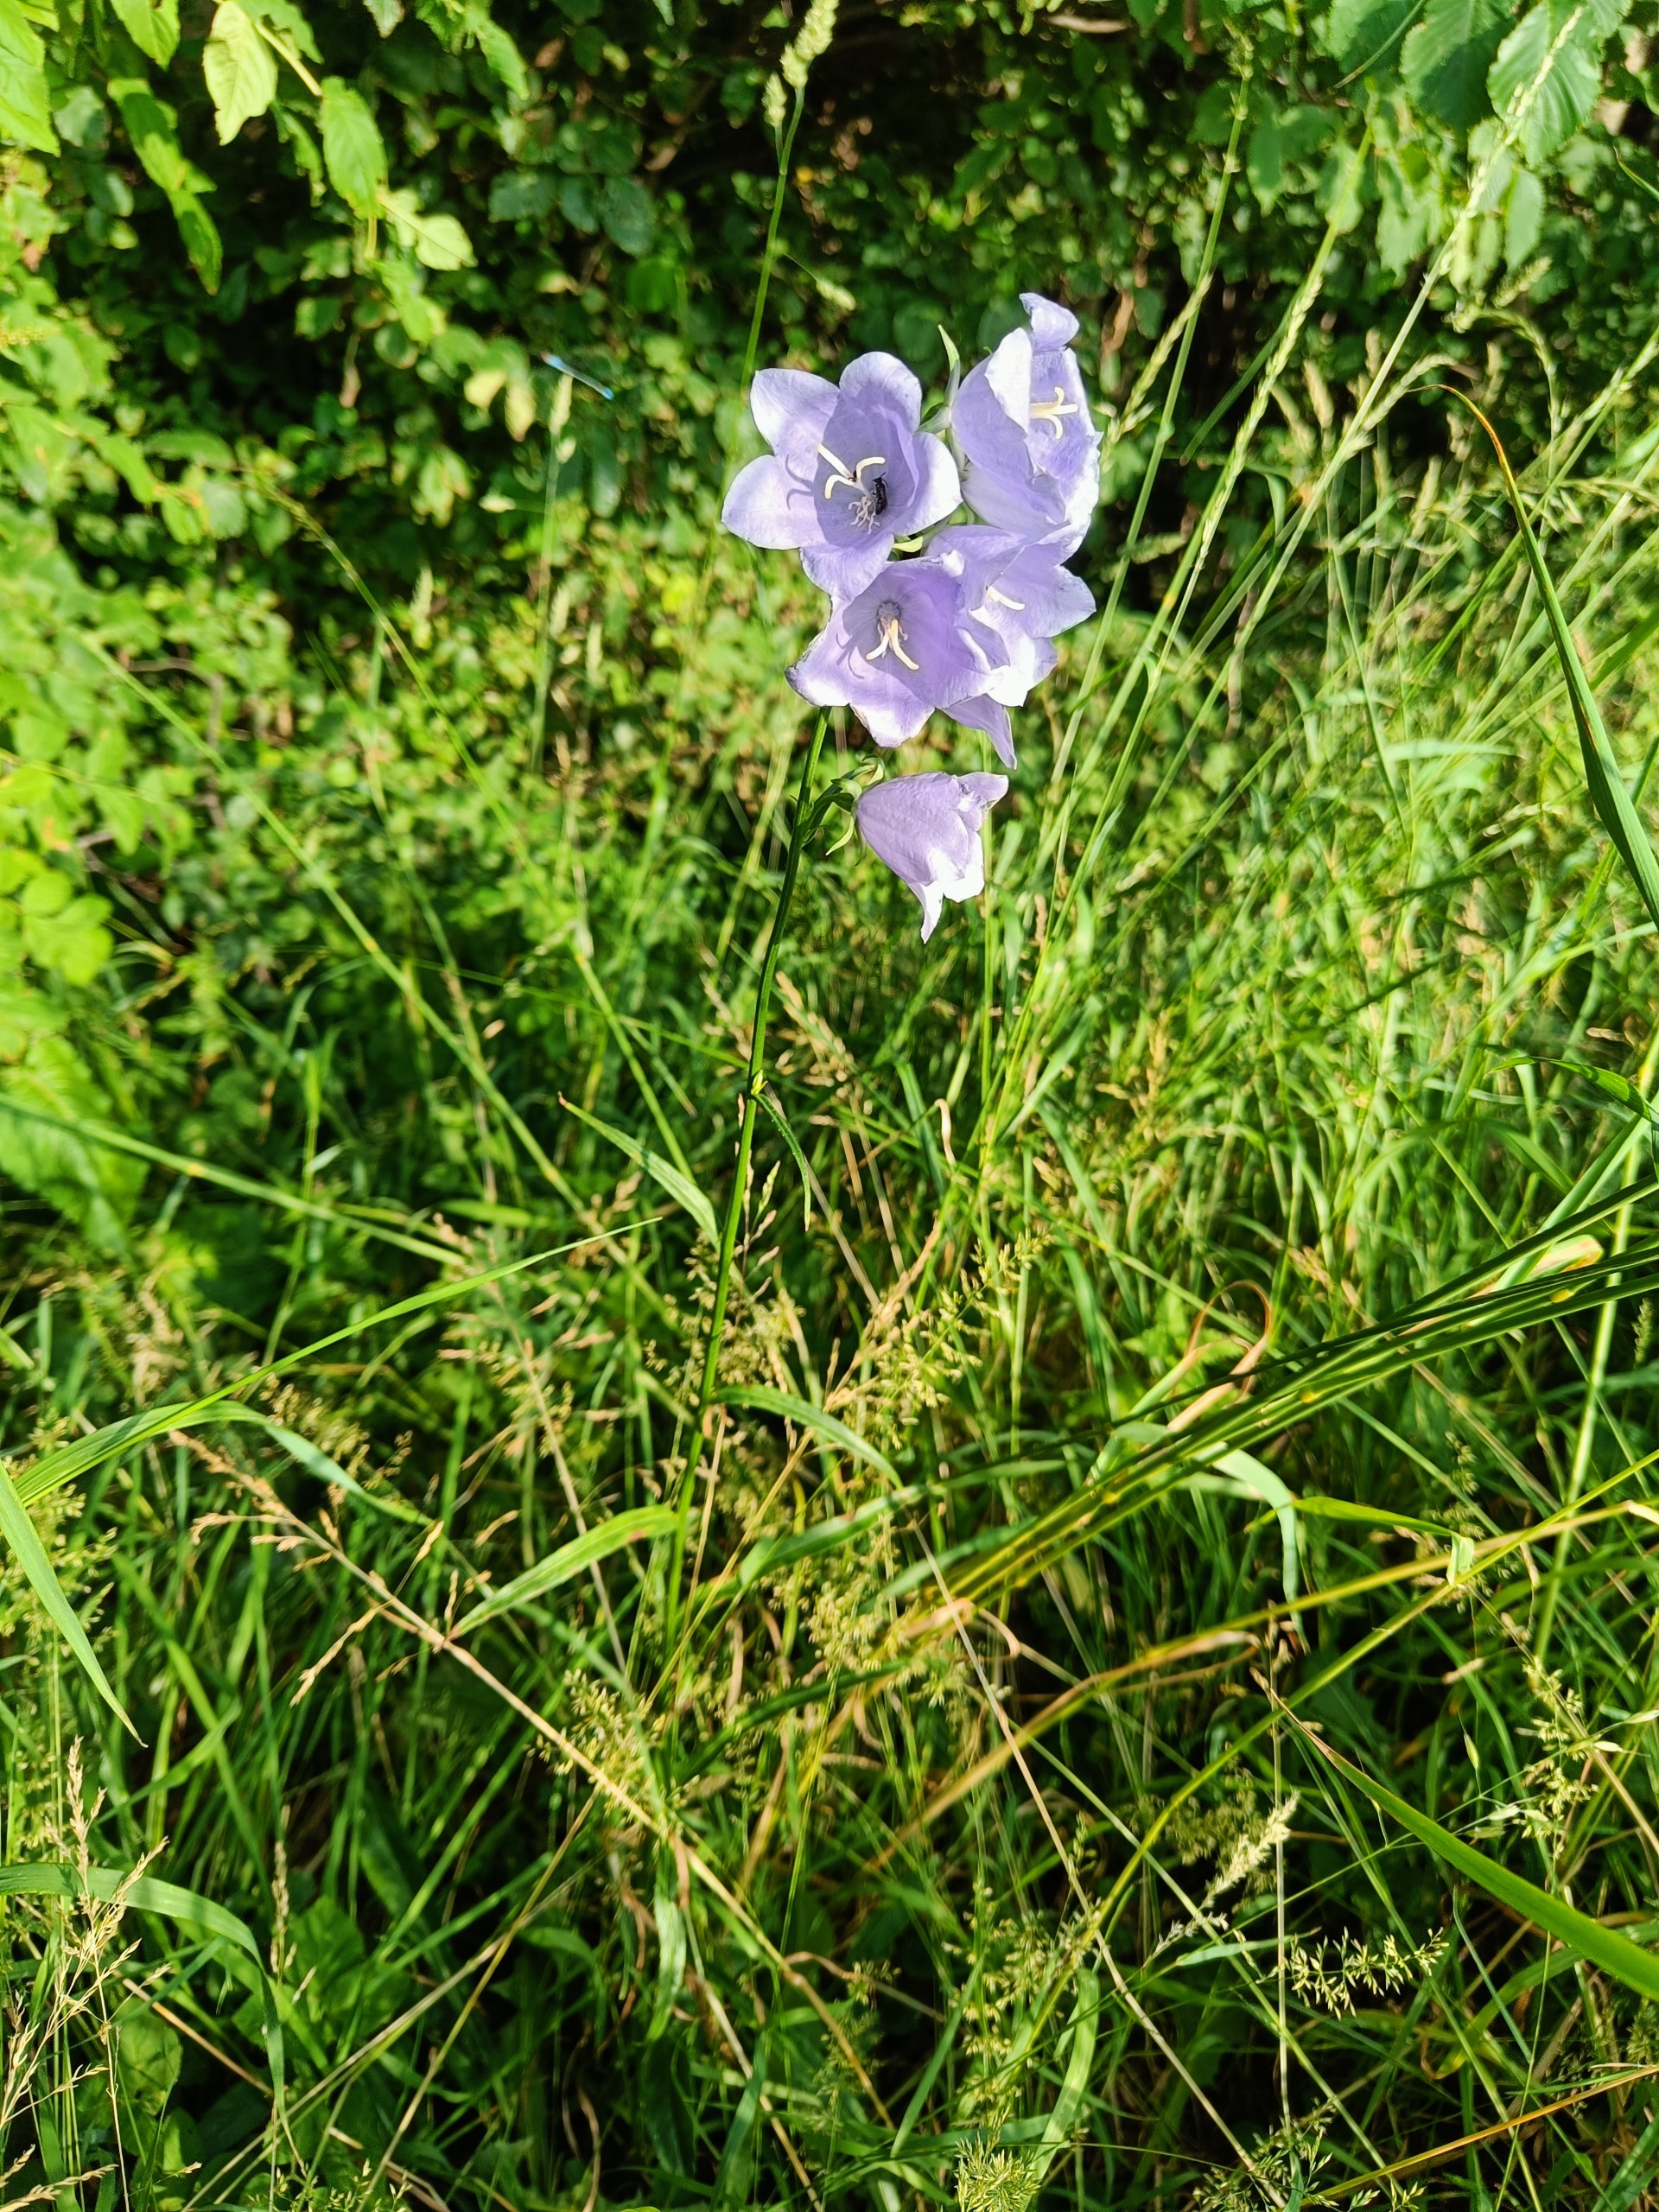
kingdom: Plantae
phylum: Tracheophyta
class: Magnoliopsida
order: Asterales
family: Campanulaceae
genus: Campanula
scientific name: Campanula persicifolia
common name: Smalbladet klokke
